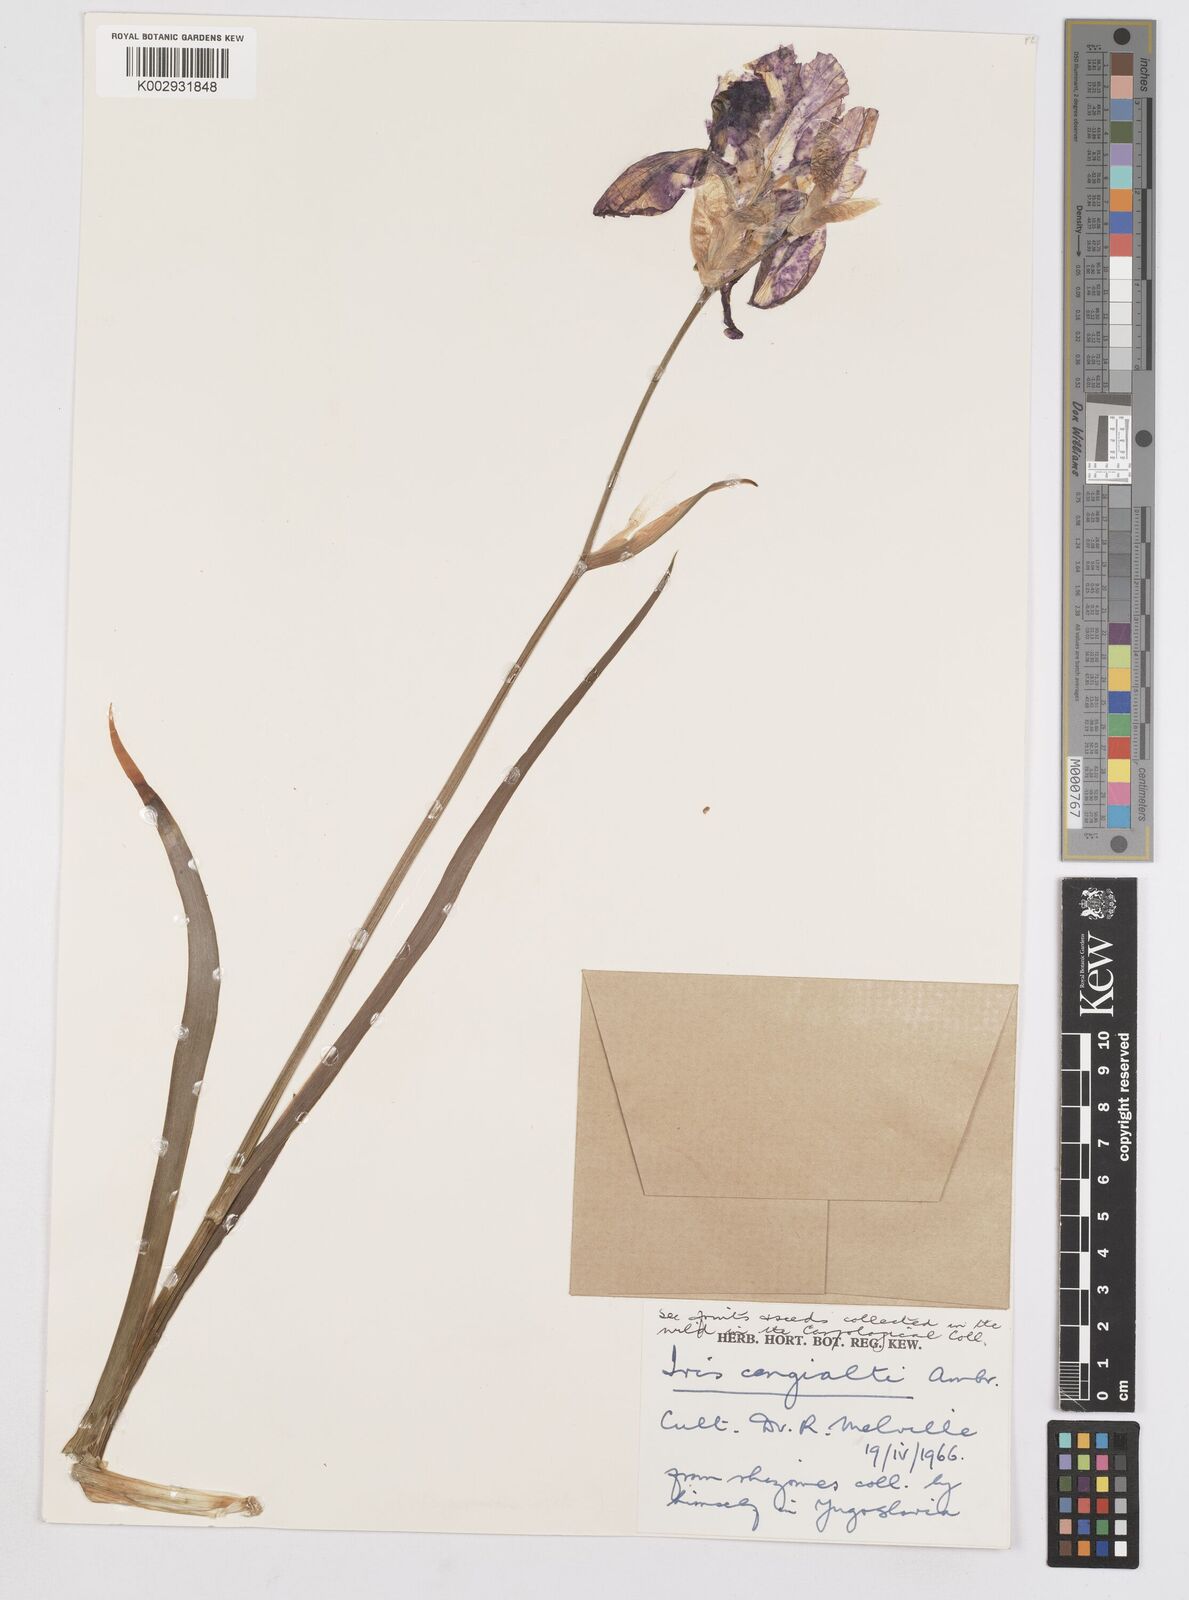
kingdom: Plantae
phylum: Tracheophyta
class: Liliopsida
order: Asparagales
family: Iridaceae
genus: Iris
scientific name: Iris pallida
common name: Sweet iris
